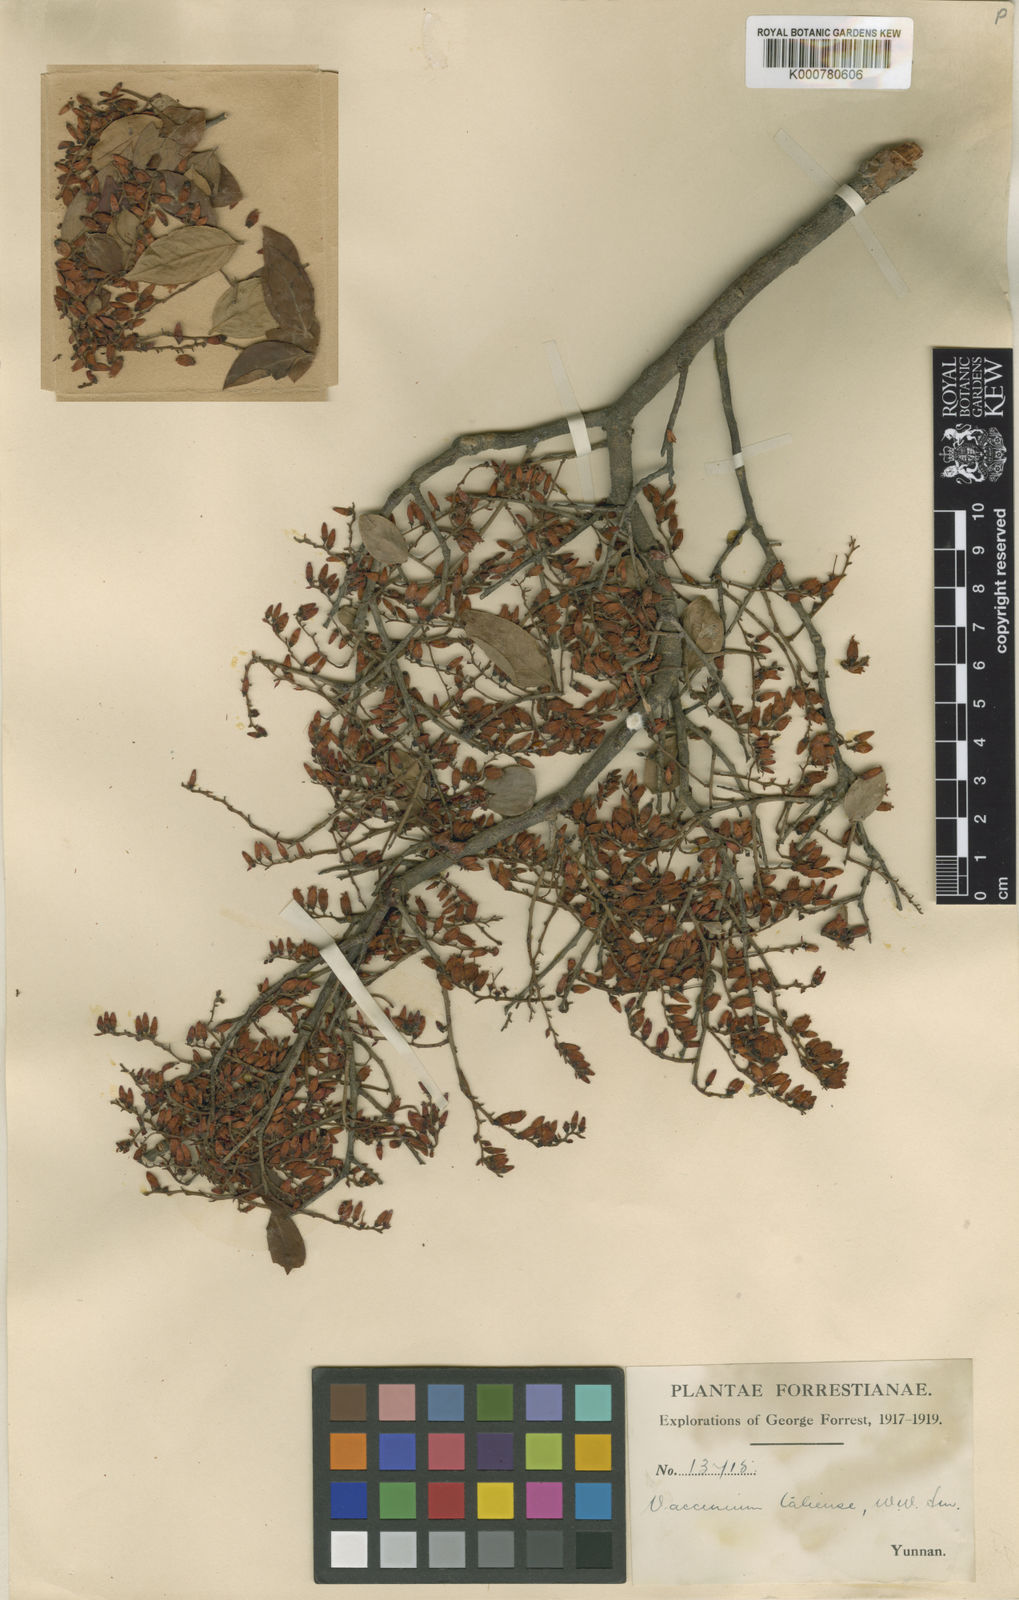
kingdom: Plantae
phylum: Tracheophyta
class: Magnoliopsida
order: Ericales
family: Ericaceae
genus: Vaccinium
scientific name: Vaccinium fragile
